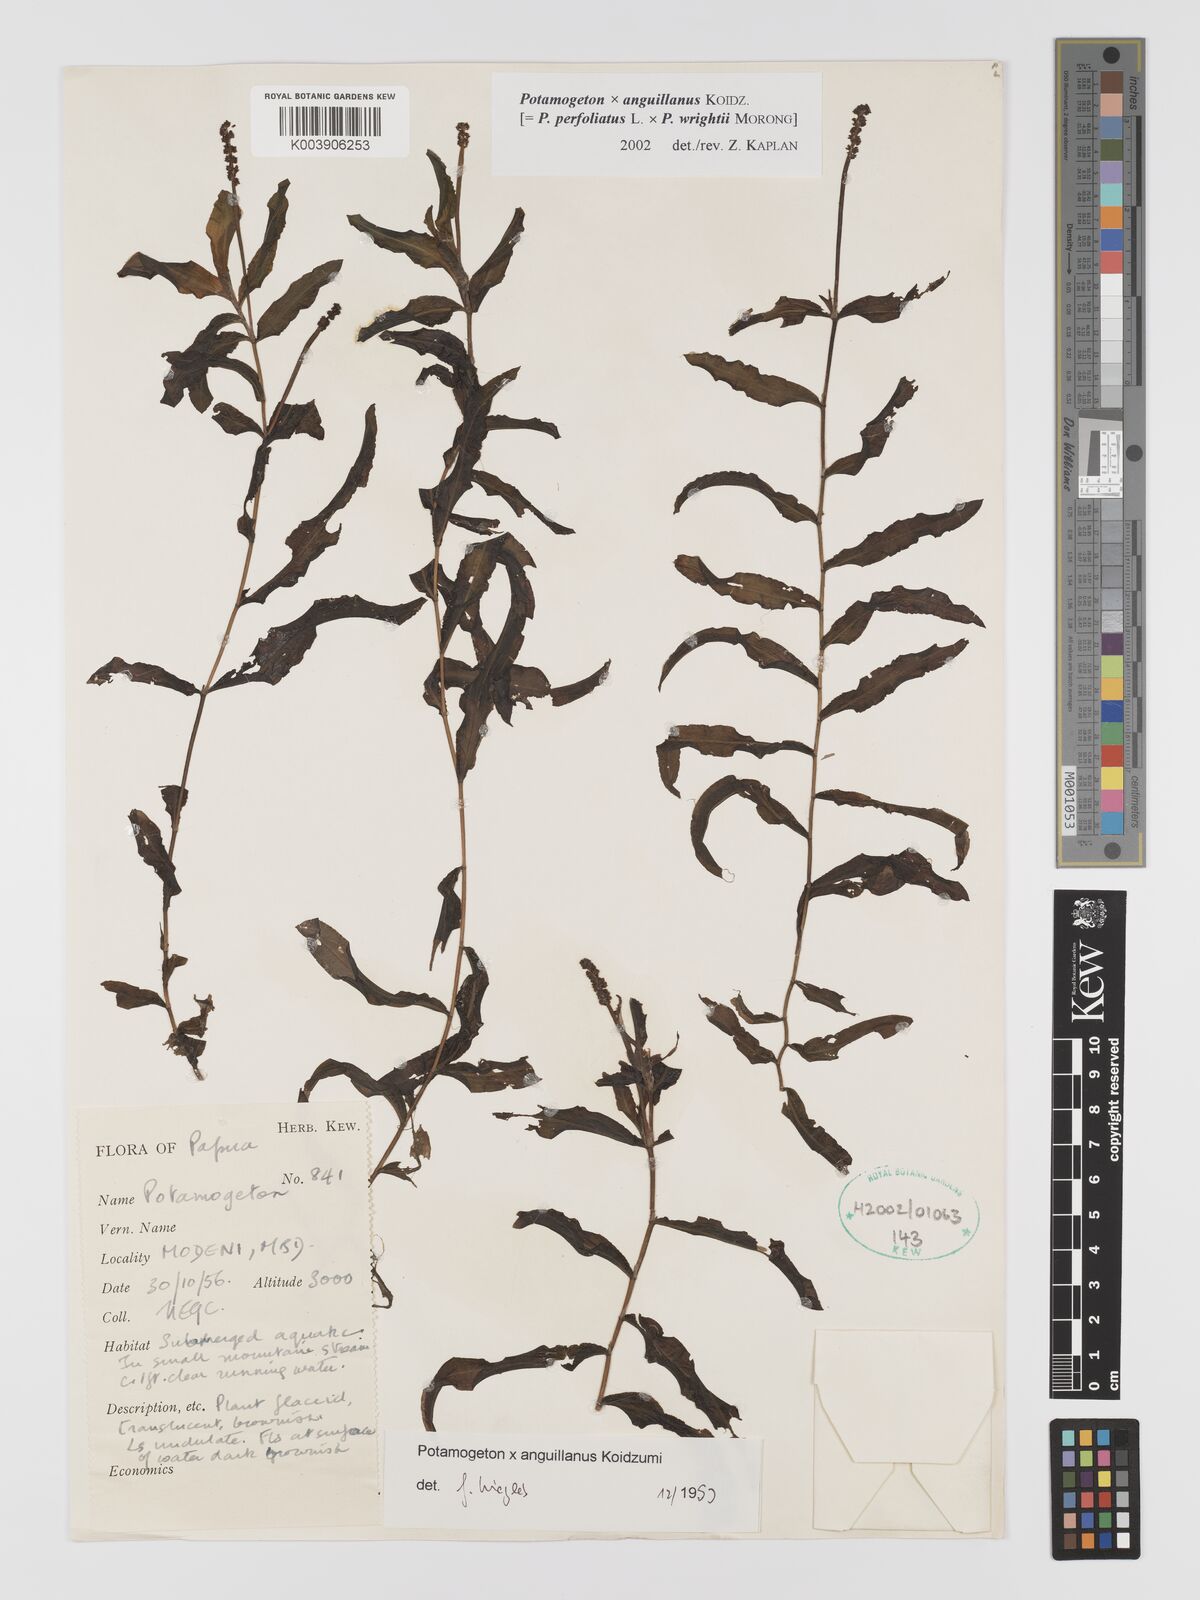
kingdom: Plantae
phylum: Tracheophyta
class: Liliopsida
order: Alismatales
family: Potamogetonaceae
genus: Potamogeton
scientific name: Potamogeton anguillanus
